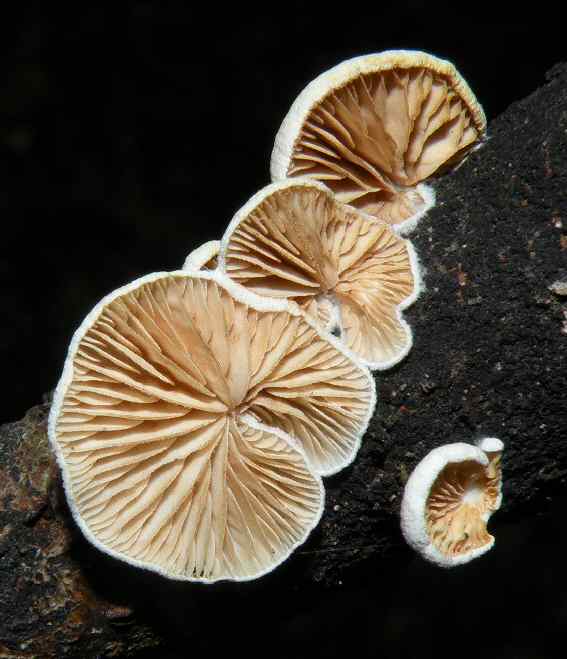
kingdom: Fungi
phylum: Basidiomycota
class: Agaricomycetes
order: Agaricales
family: Crepidotaceae
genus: Crepidotus
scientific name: Crepidotus cesatii
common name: almindelig muslingesvamp
